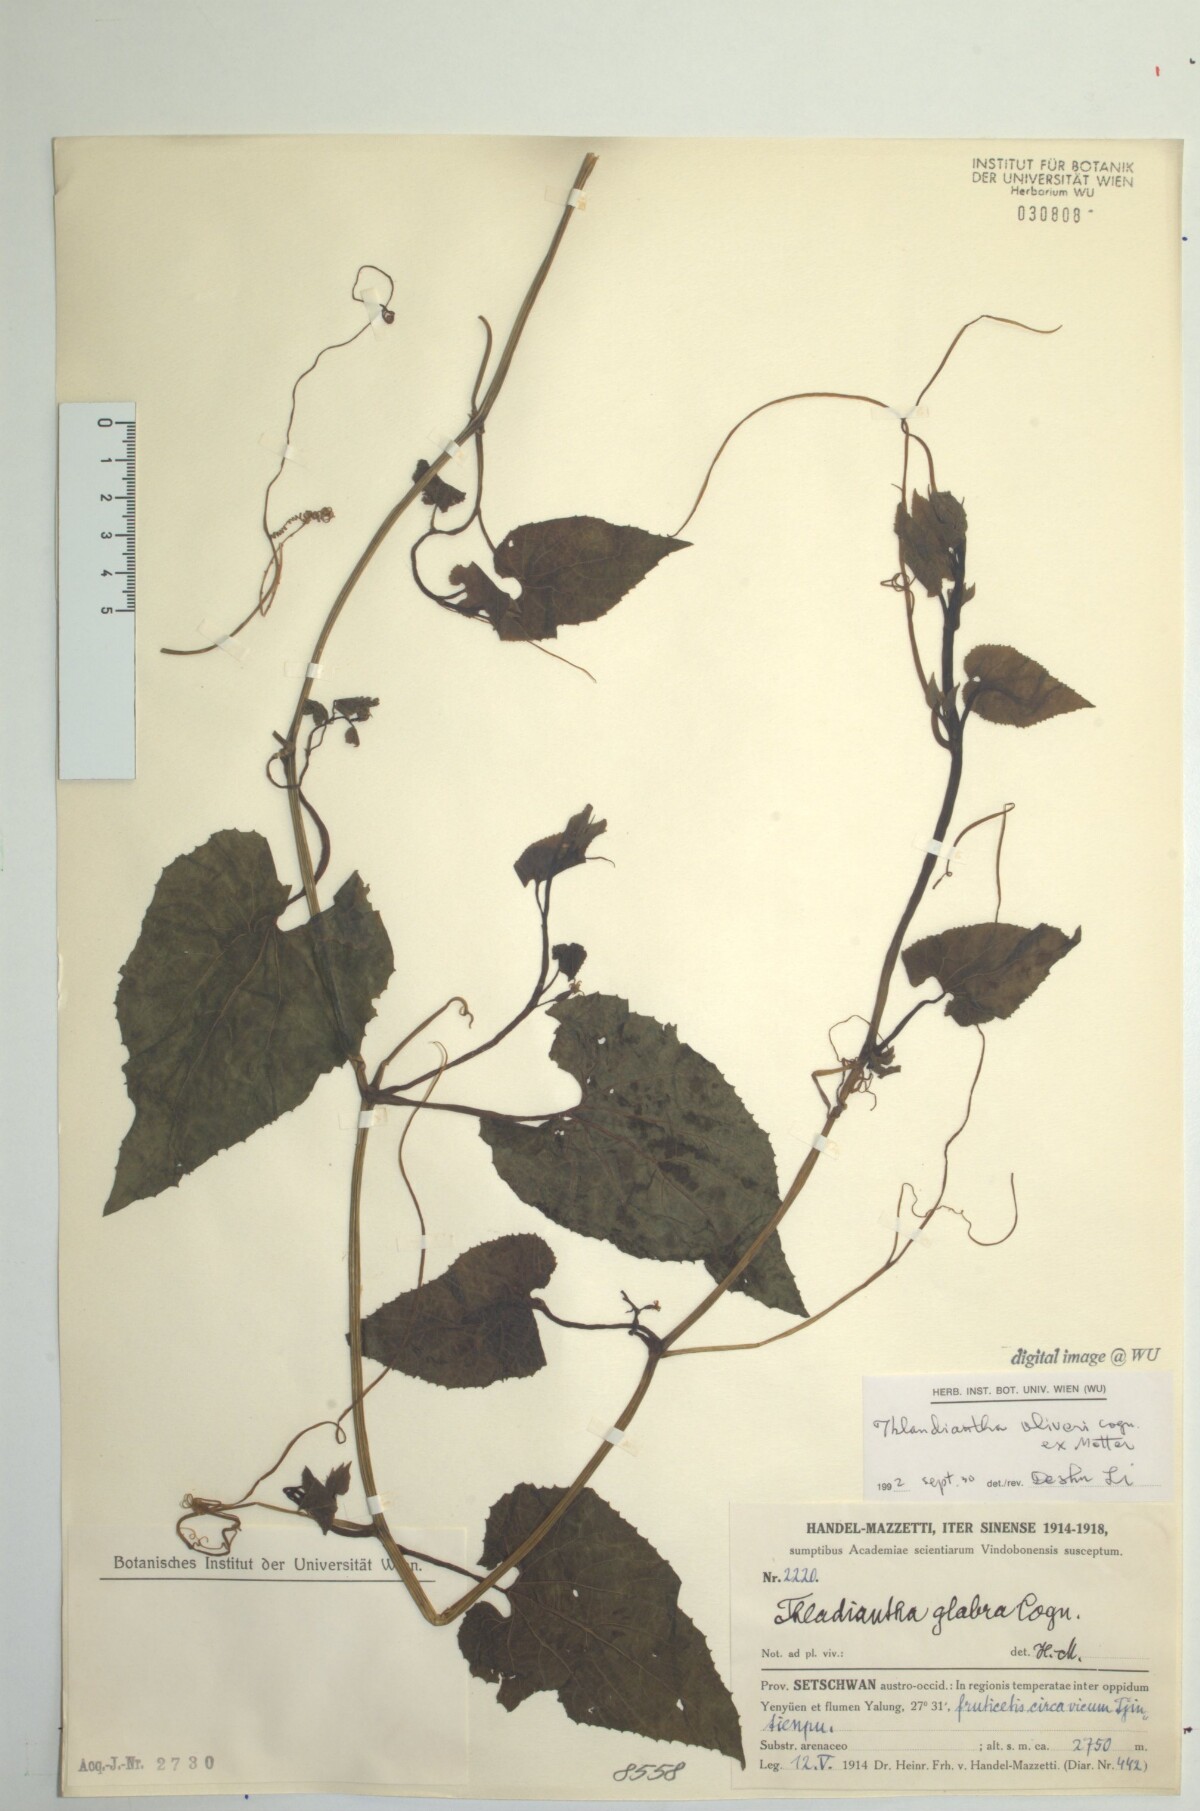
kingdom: Plantae
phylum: Tracheophyta
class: Magnoliopsida
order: Cucurbitales
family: Cucurbitaceae
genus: Thladiantha
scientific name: Thladiantha oliveri
